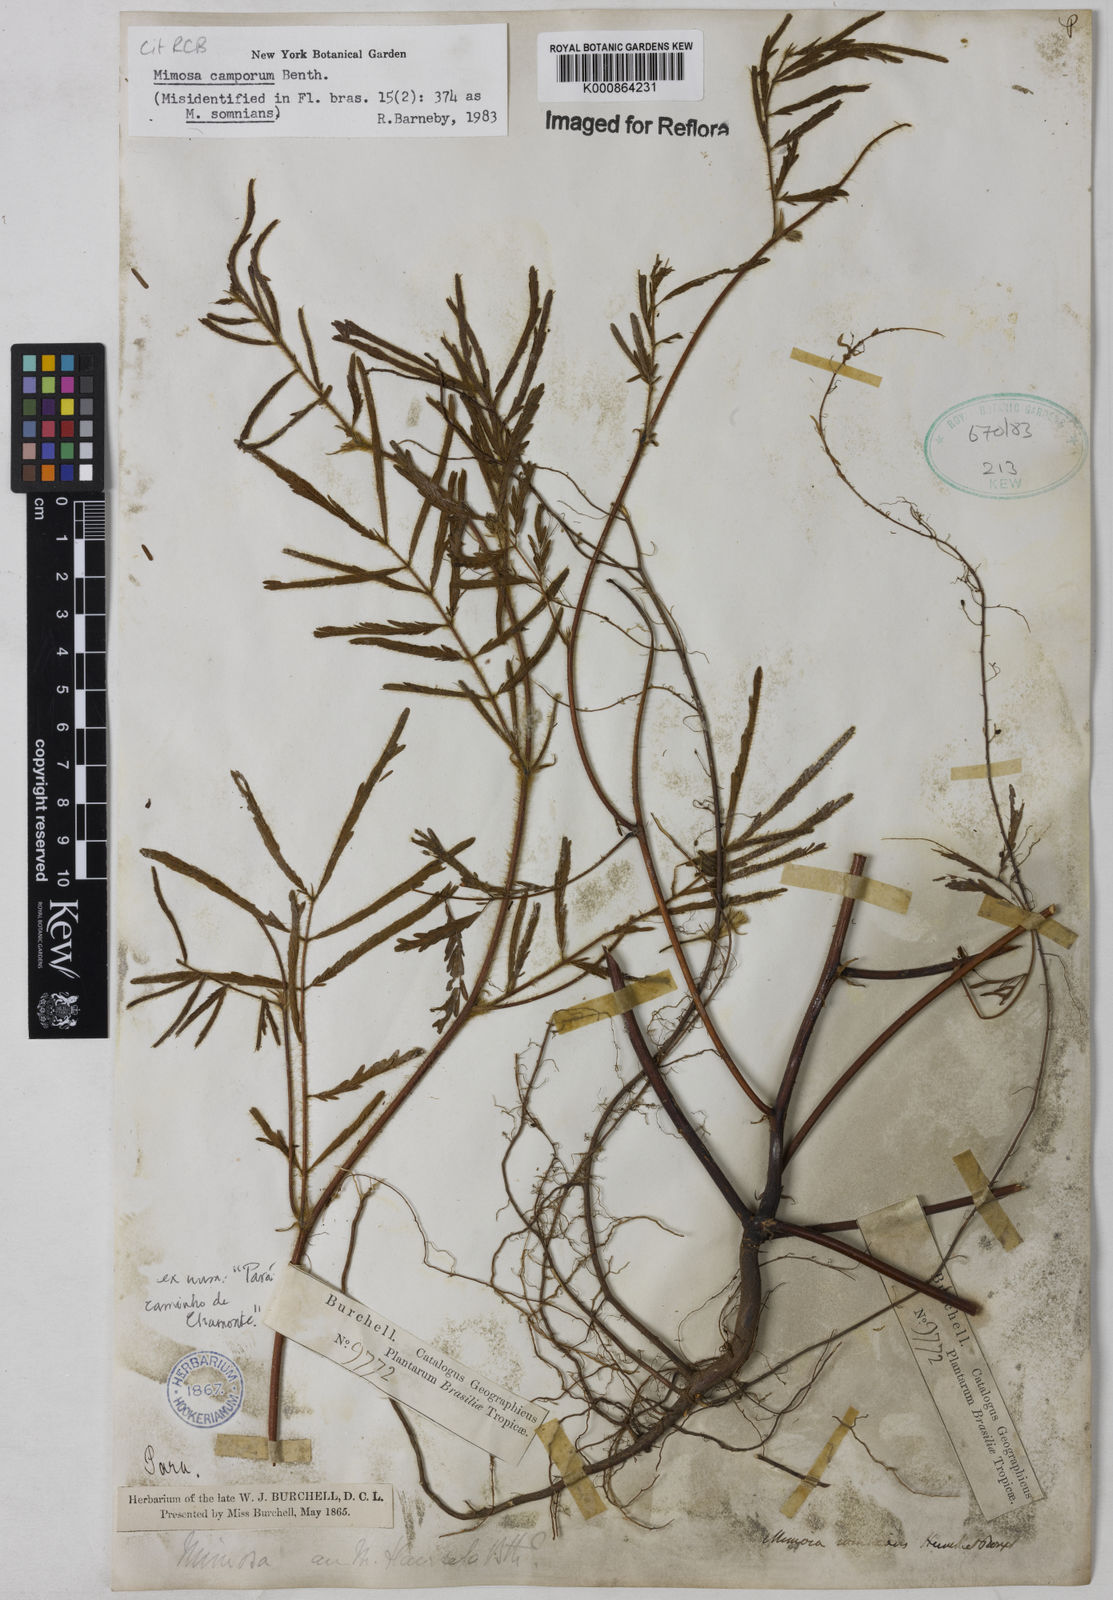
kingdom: Plantae
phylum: Tracheophyta
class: Magnoliopsida
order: Fabales
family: Fabaceae
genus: Mimosa
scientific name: Mimosa camporum
